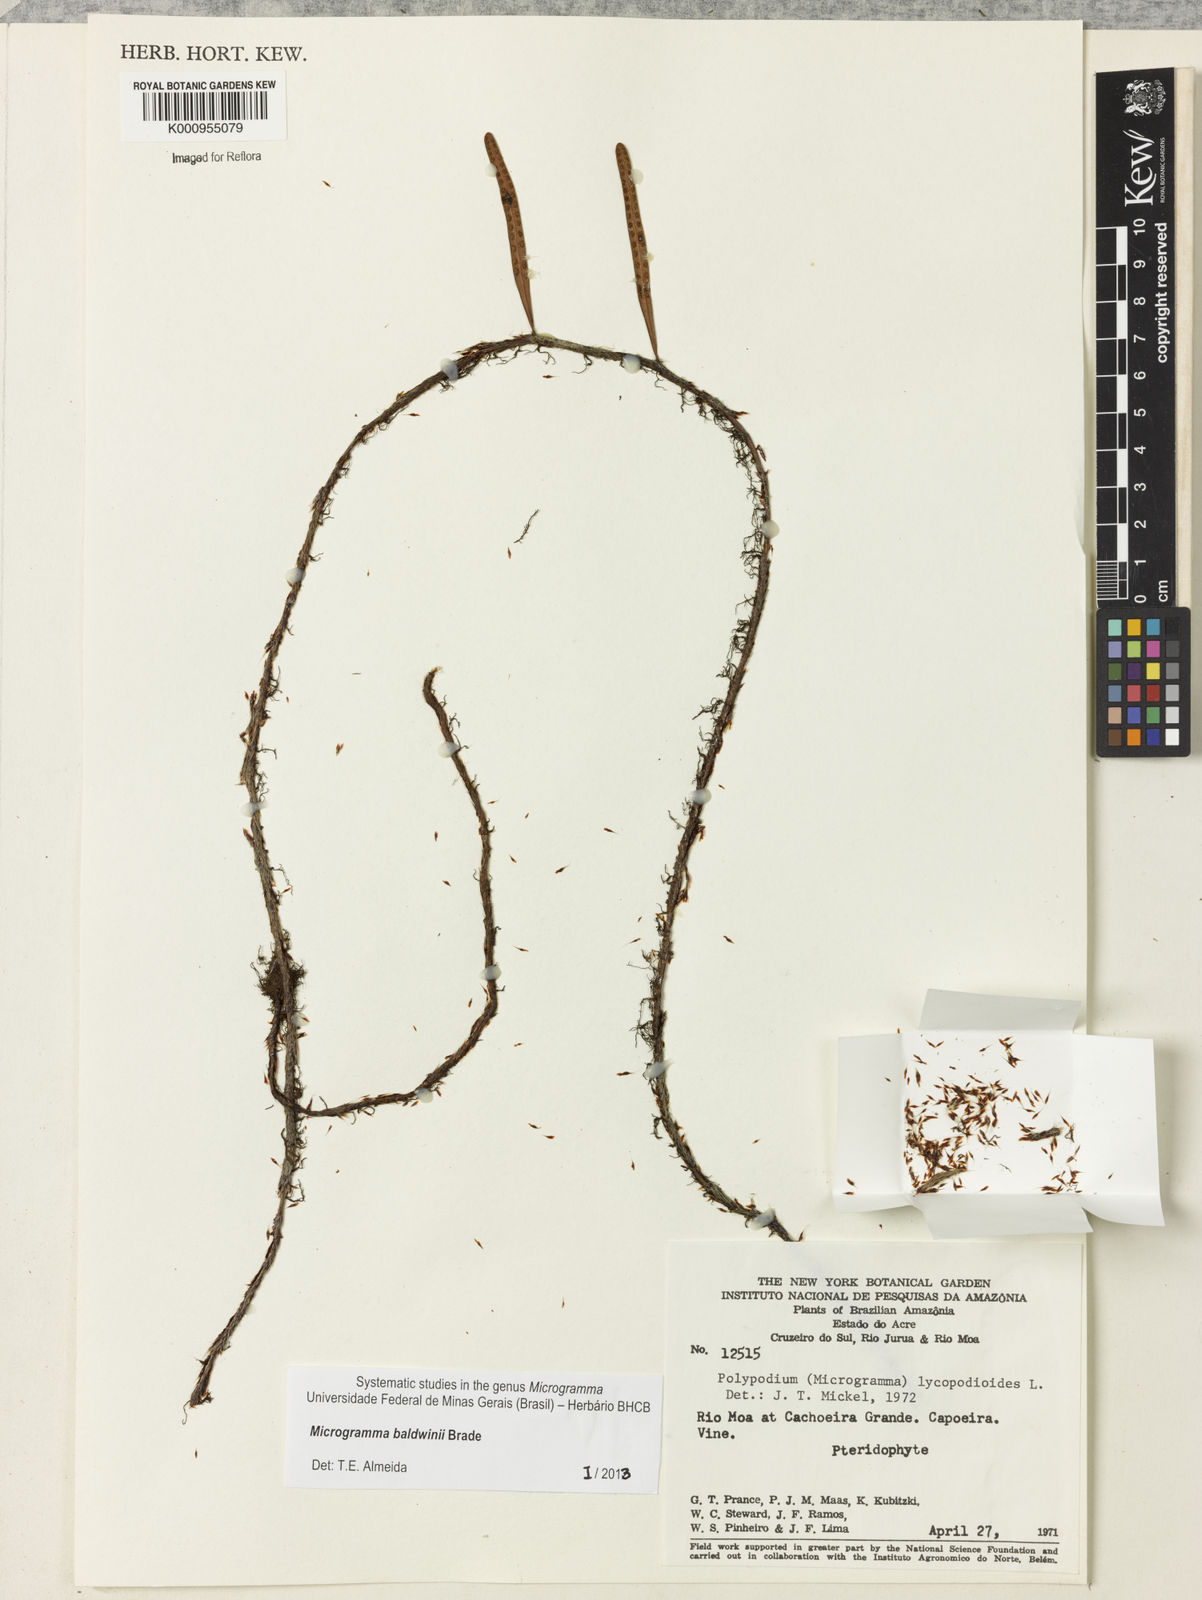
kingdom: Plantae
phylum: Tracheophyta
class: Polypodiopsida
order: Polypodiales
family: Polypodiaceae
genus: Microgramma
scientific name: Microgramma baldwinii
